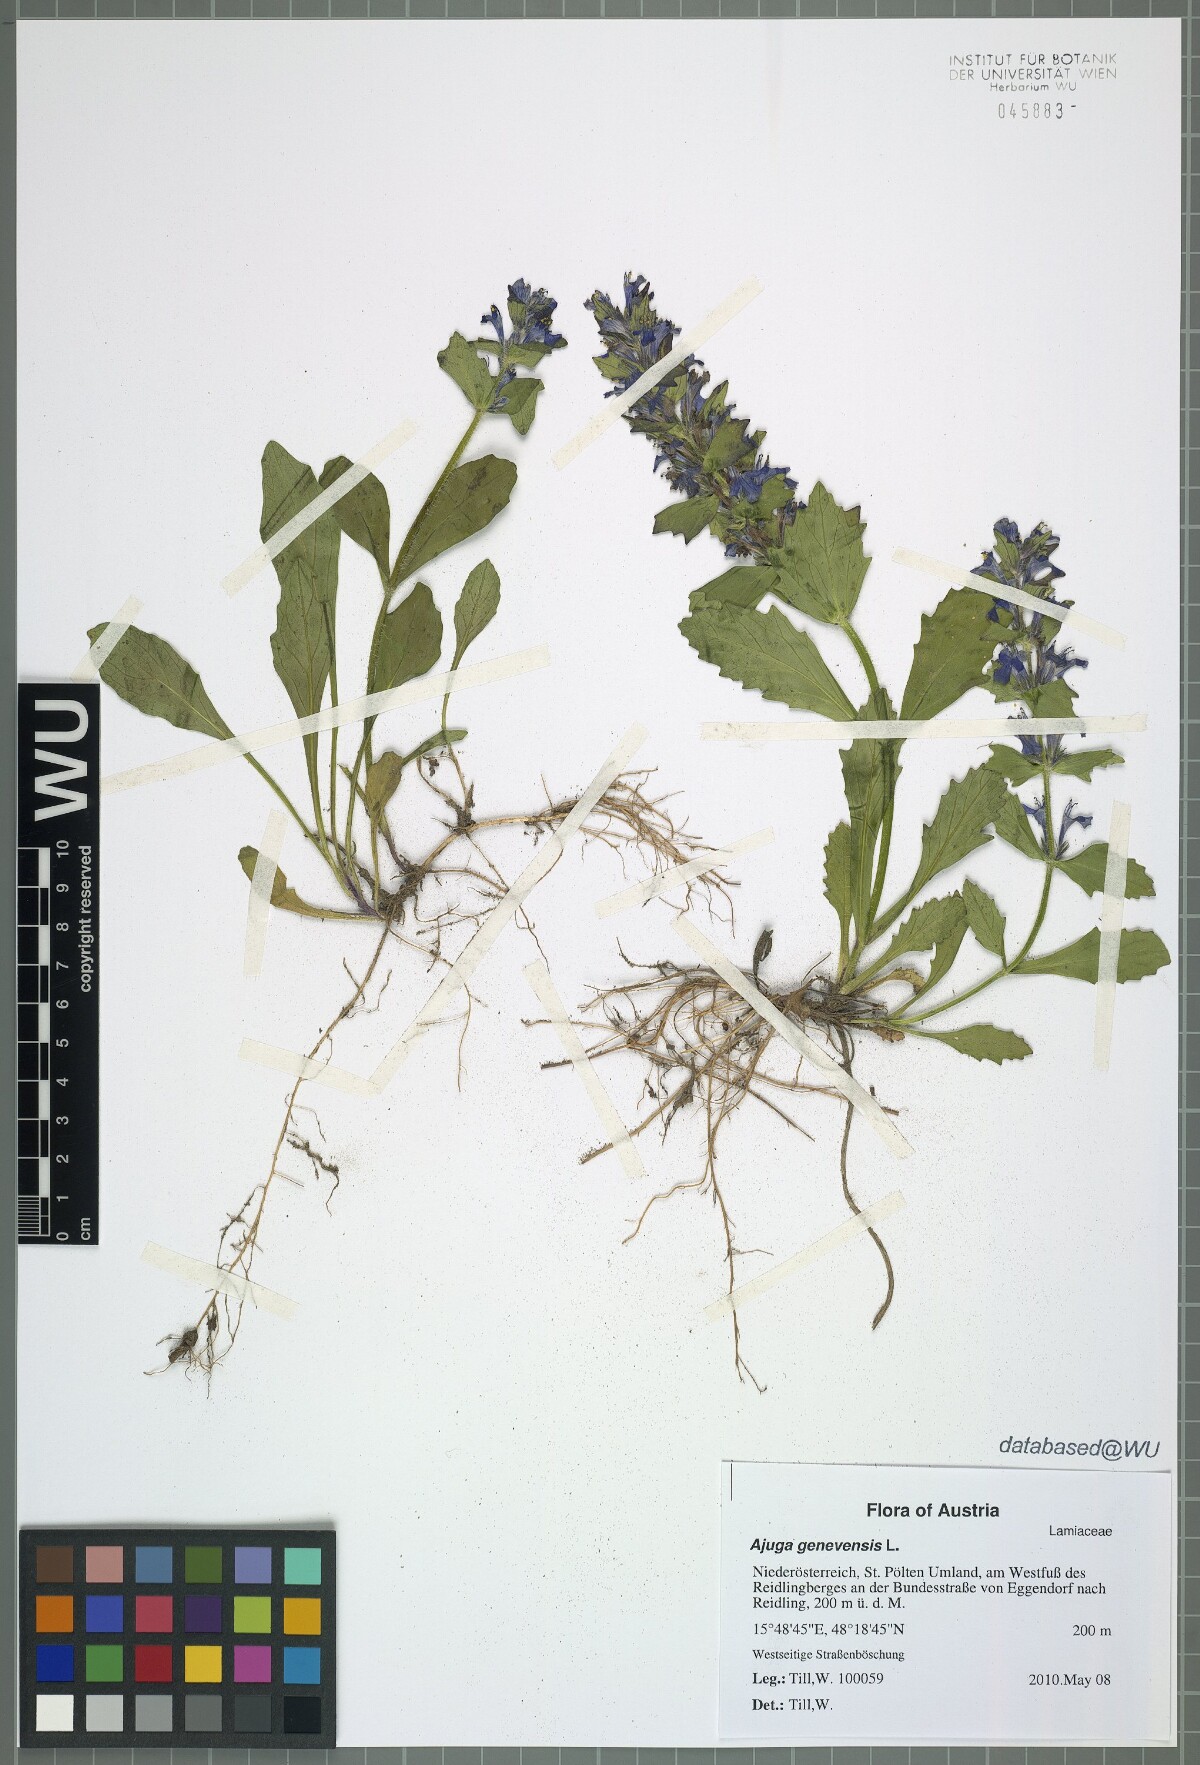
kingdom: Plantae
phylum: Tracheophyta
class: Magnoliopsida
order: Lamiales
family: Lamiaceae
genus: Ajuga
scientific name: Ajuga genevensis
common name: Blue bugle
